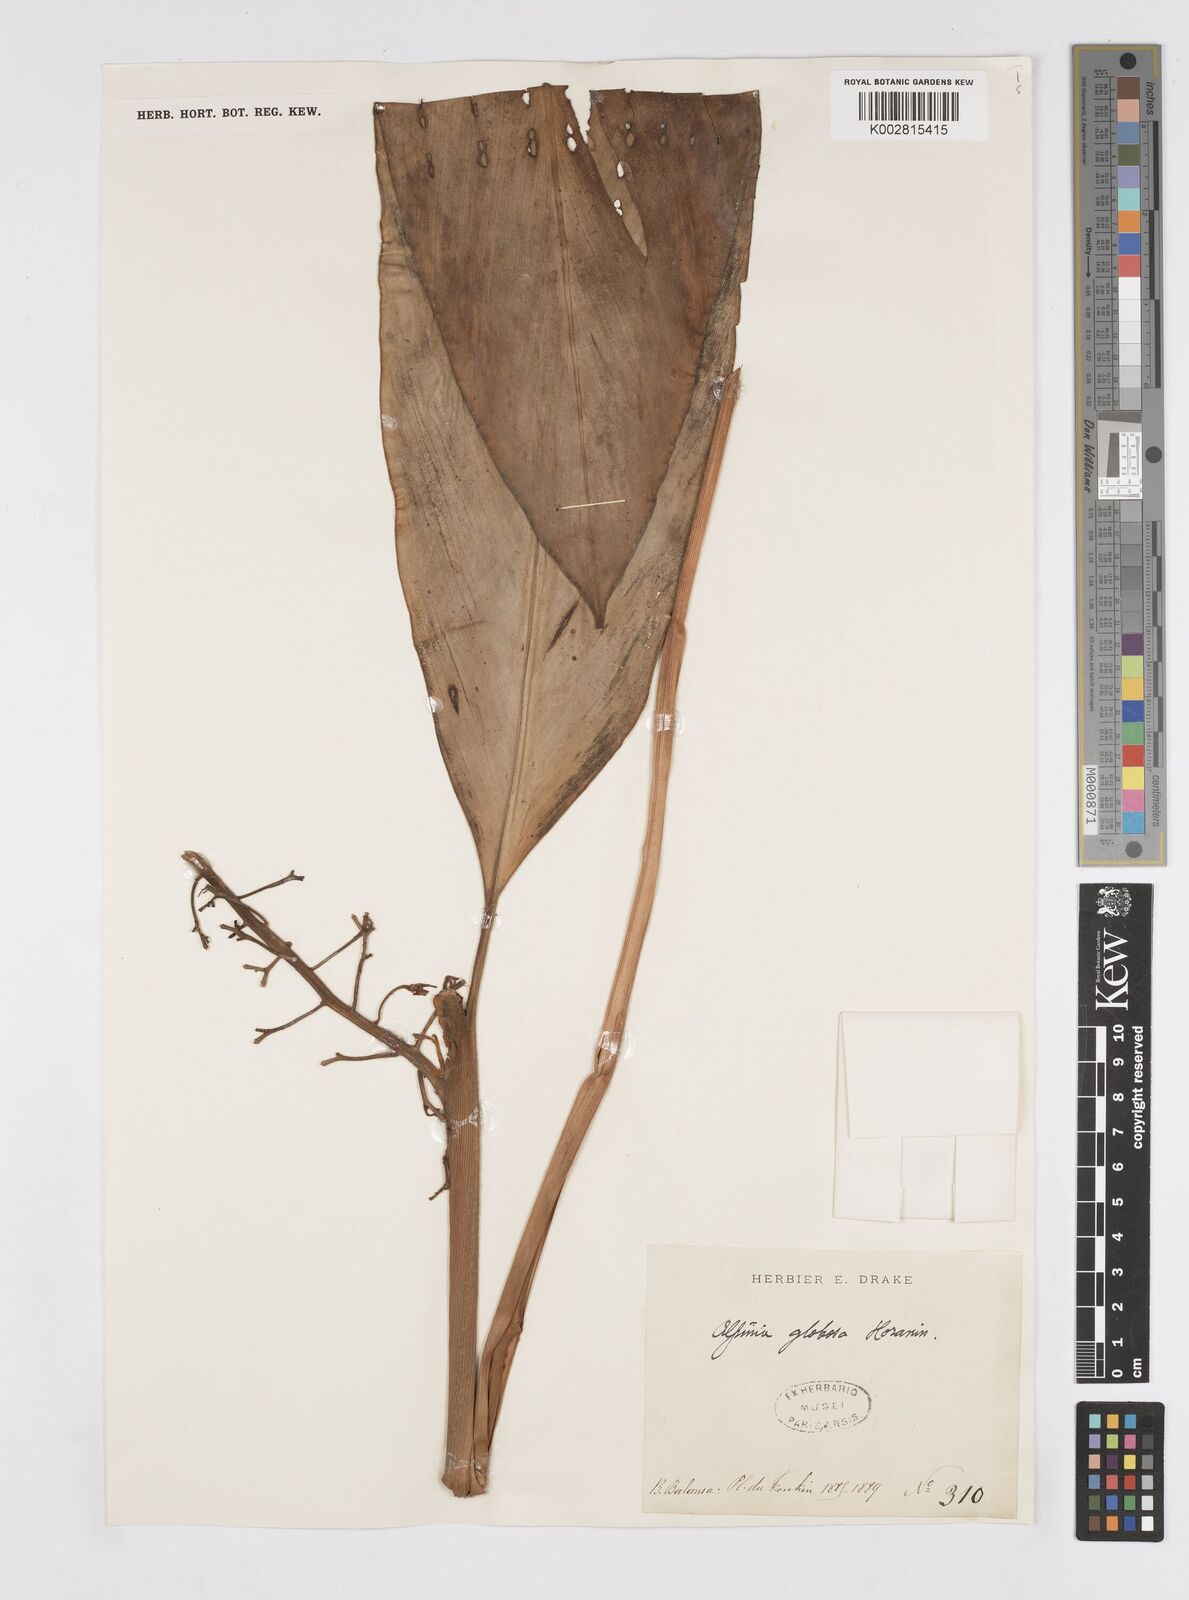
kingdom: Plantae
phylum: Tracheophyta
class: Liliopsida
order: Zingiberales
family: Zingiberaceae
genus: Alpinia
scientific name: Alpinia globosa
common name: Round chinese cardamom
